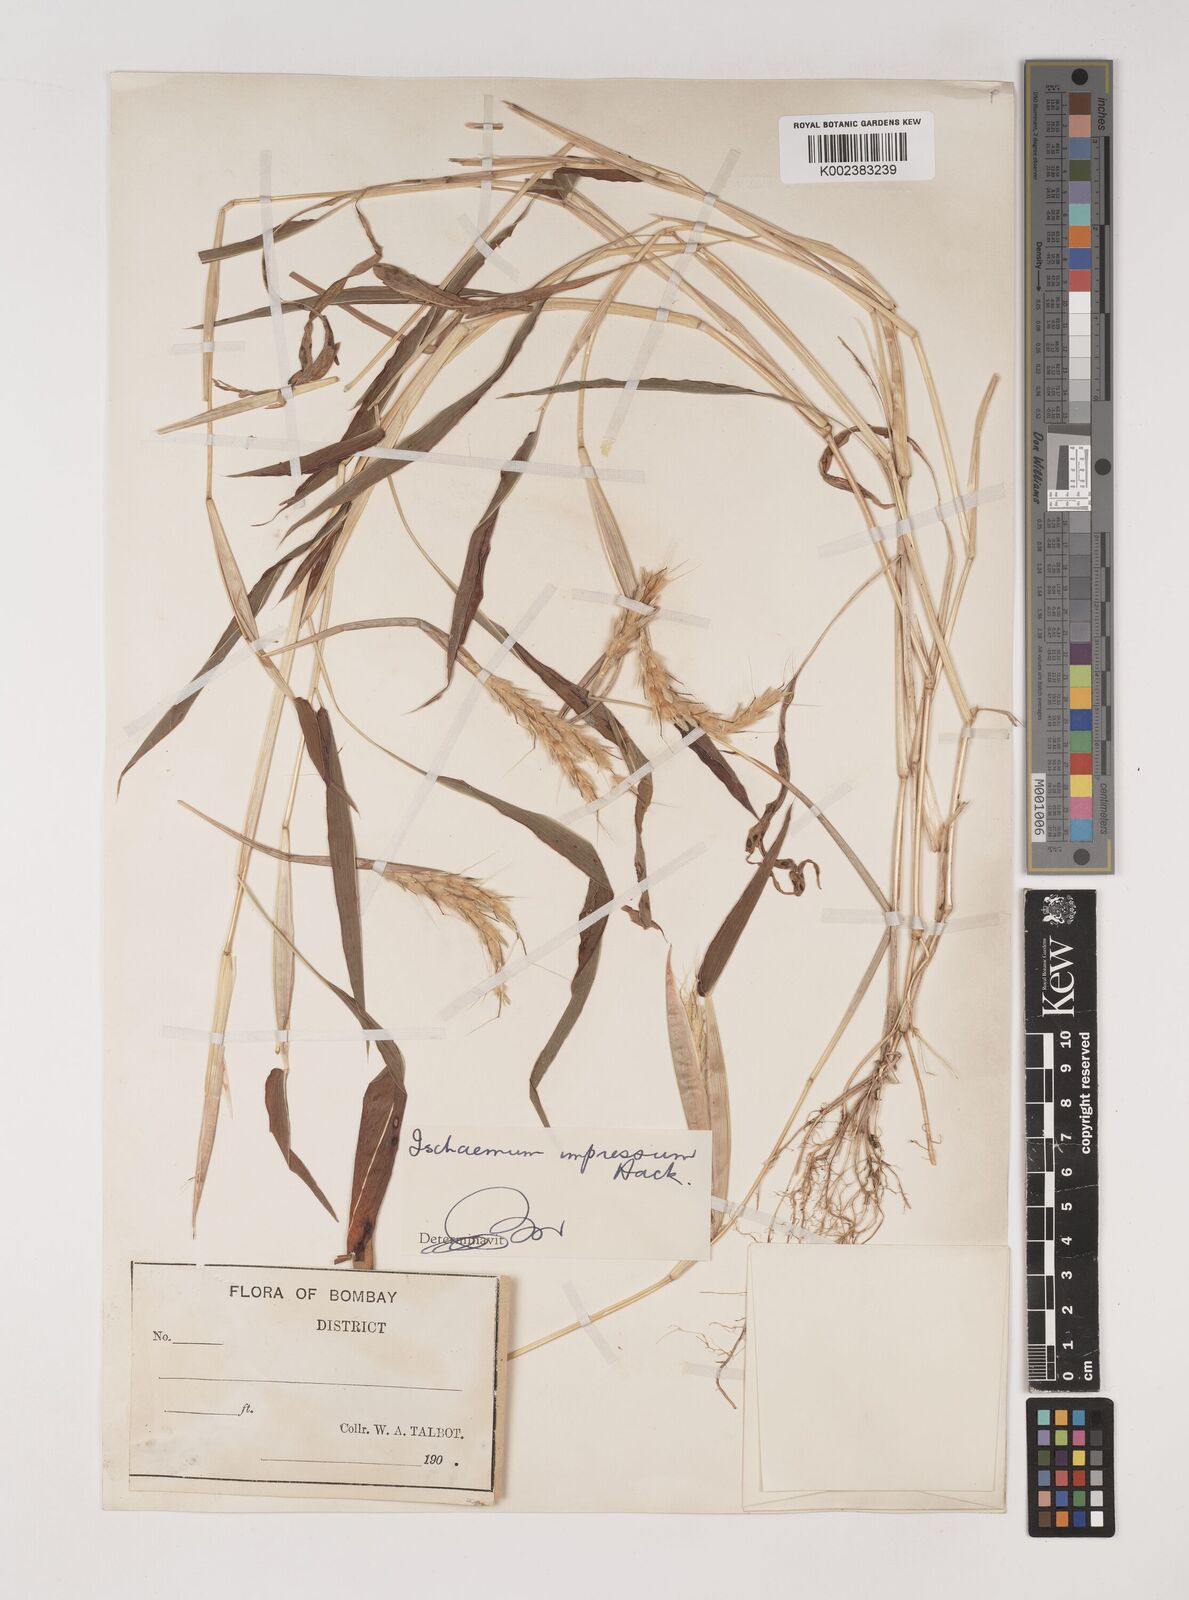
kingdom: Plantae
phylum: Tracheophyta
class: Liliopsida
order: Poales
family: Poaceae
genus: Ischaemum
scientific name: Ischaemum impressum
